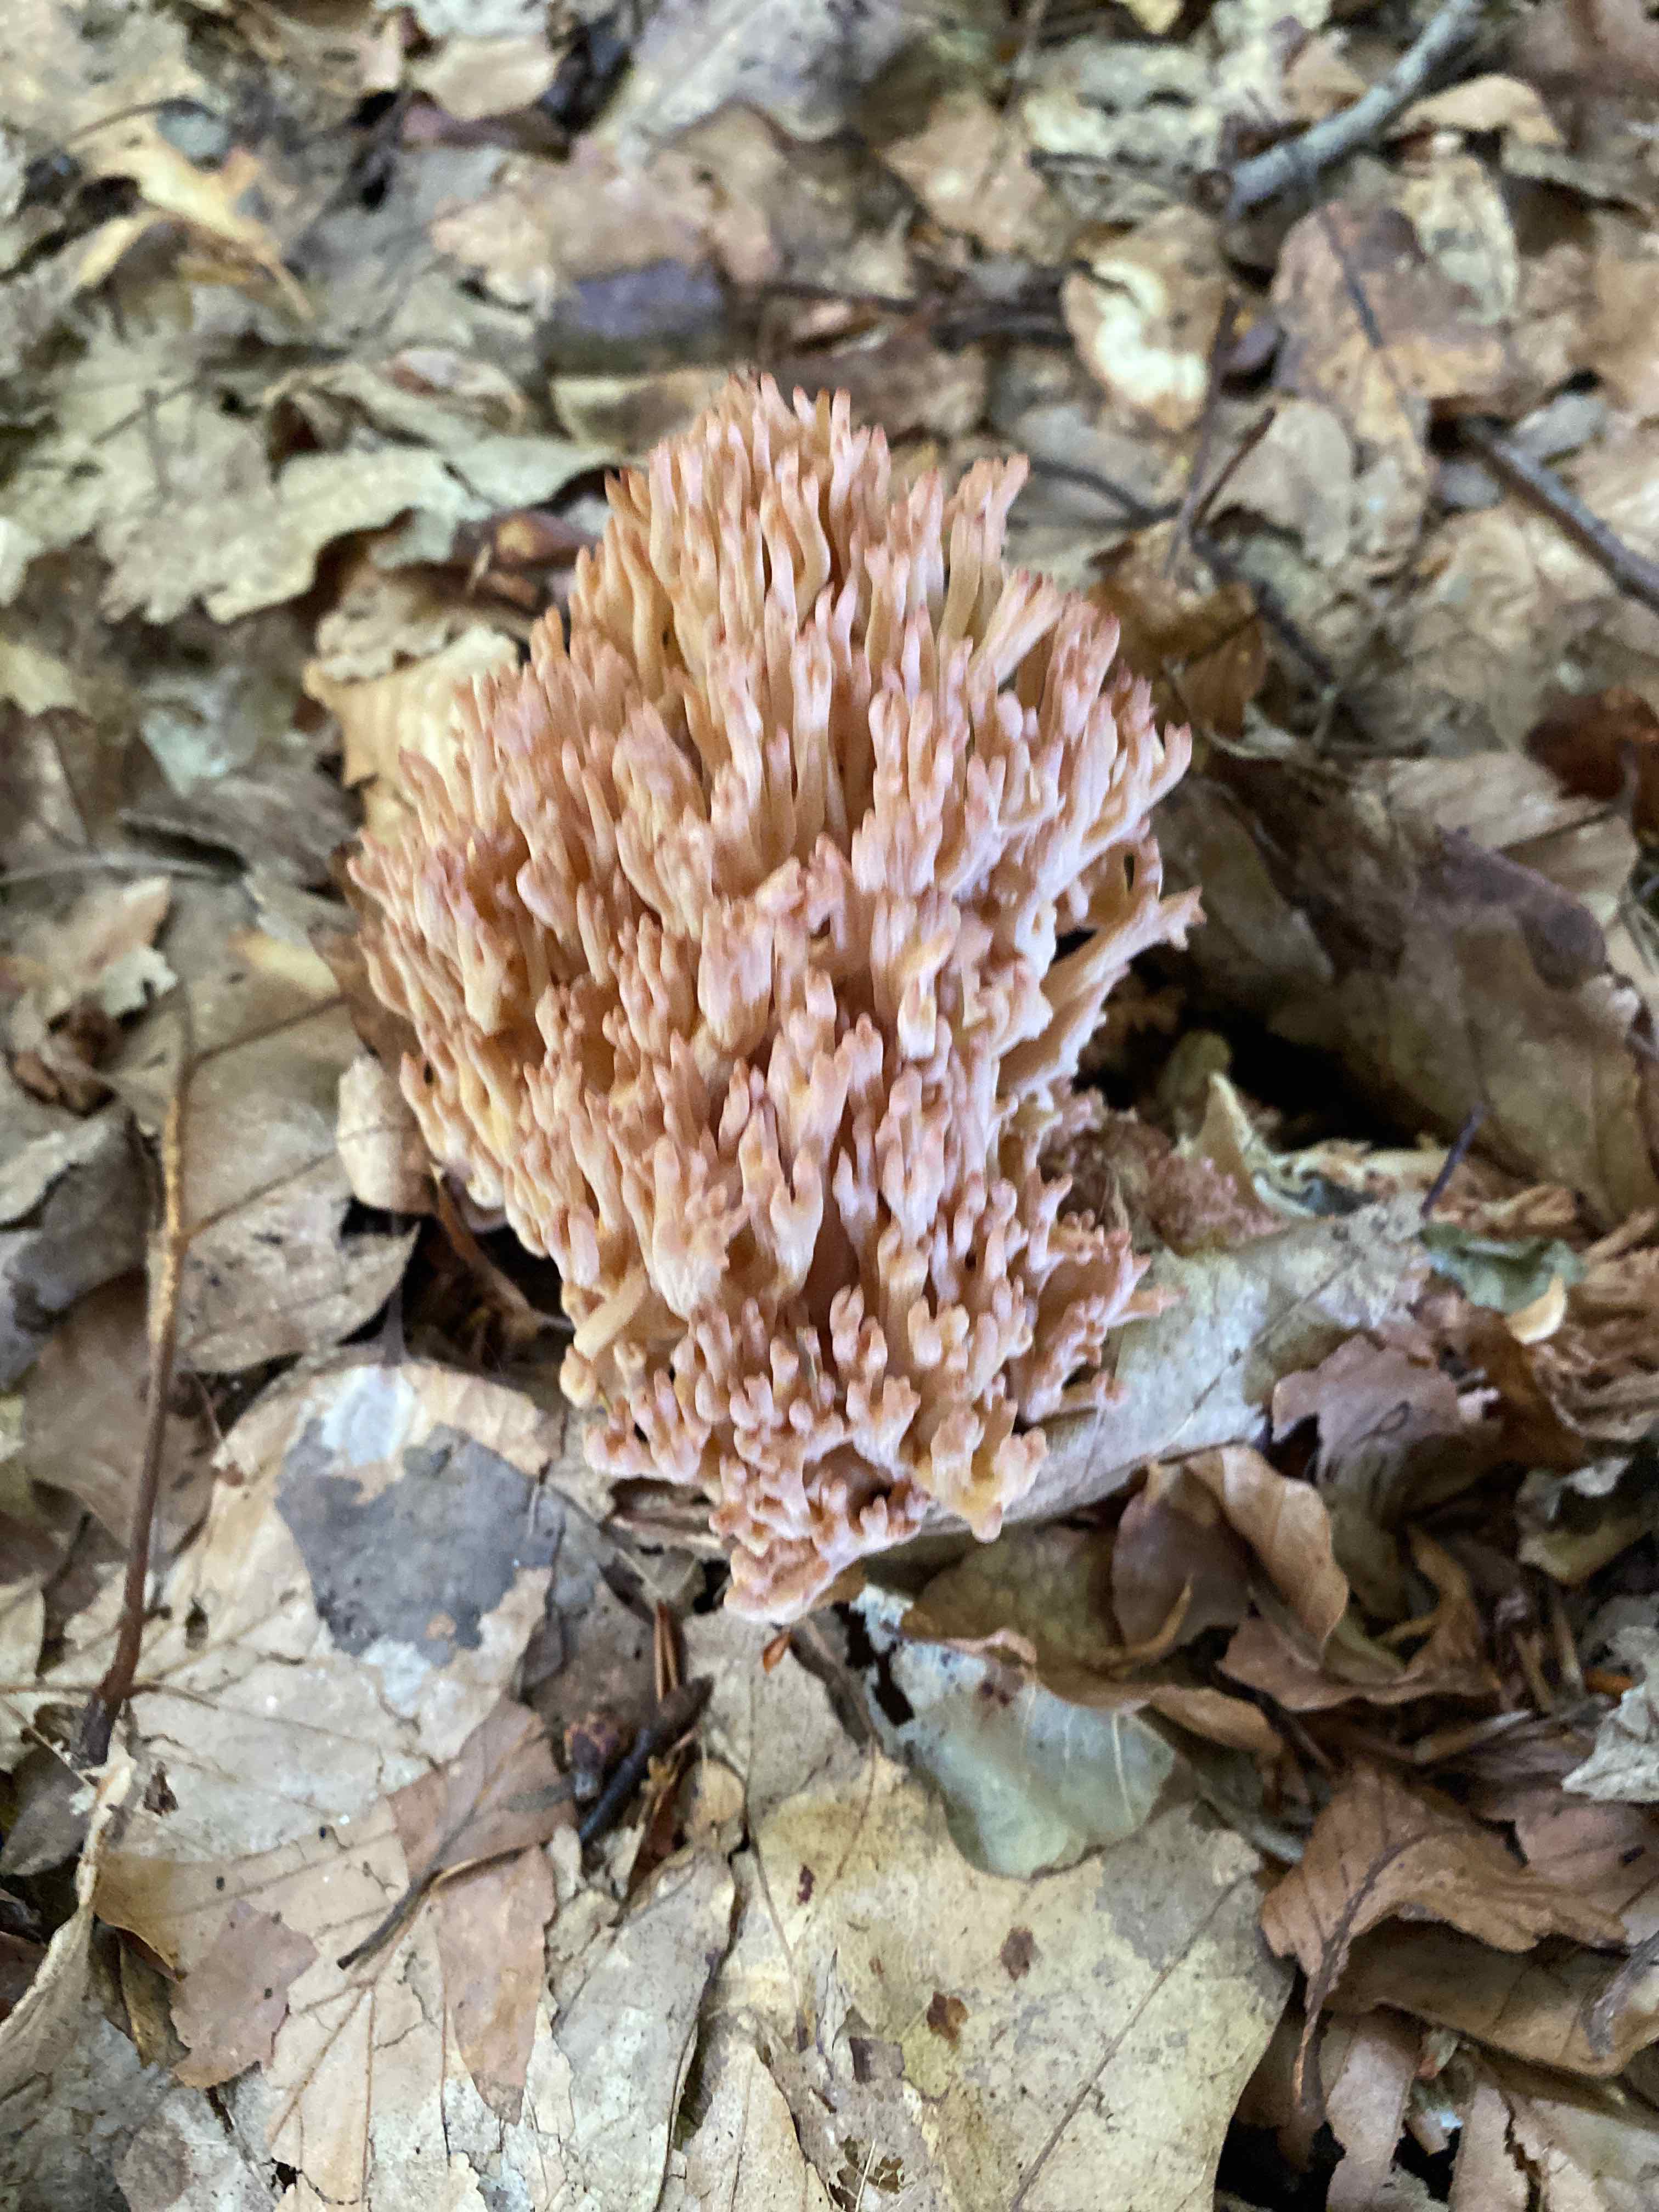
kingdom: Fungi
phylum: Basidiomycota
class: Agaricomycetes
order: Gomphales
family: Gomphaceae
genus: Ramaria
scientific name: Ramaria botrytis
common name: drue-koralsvamp
